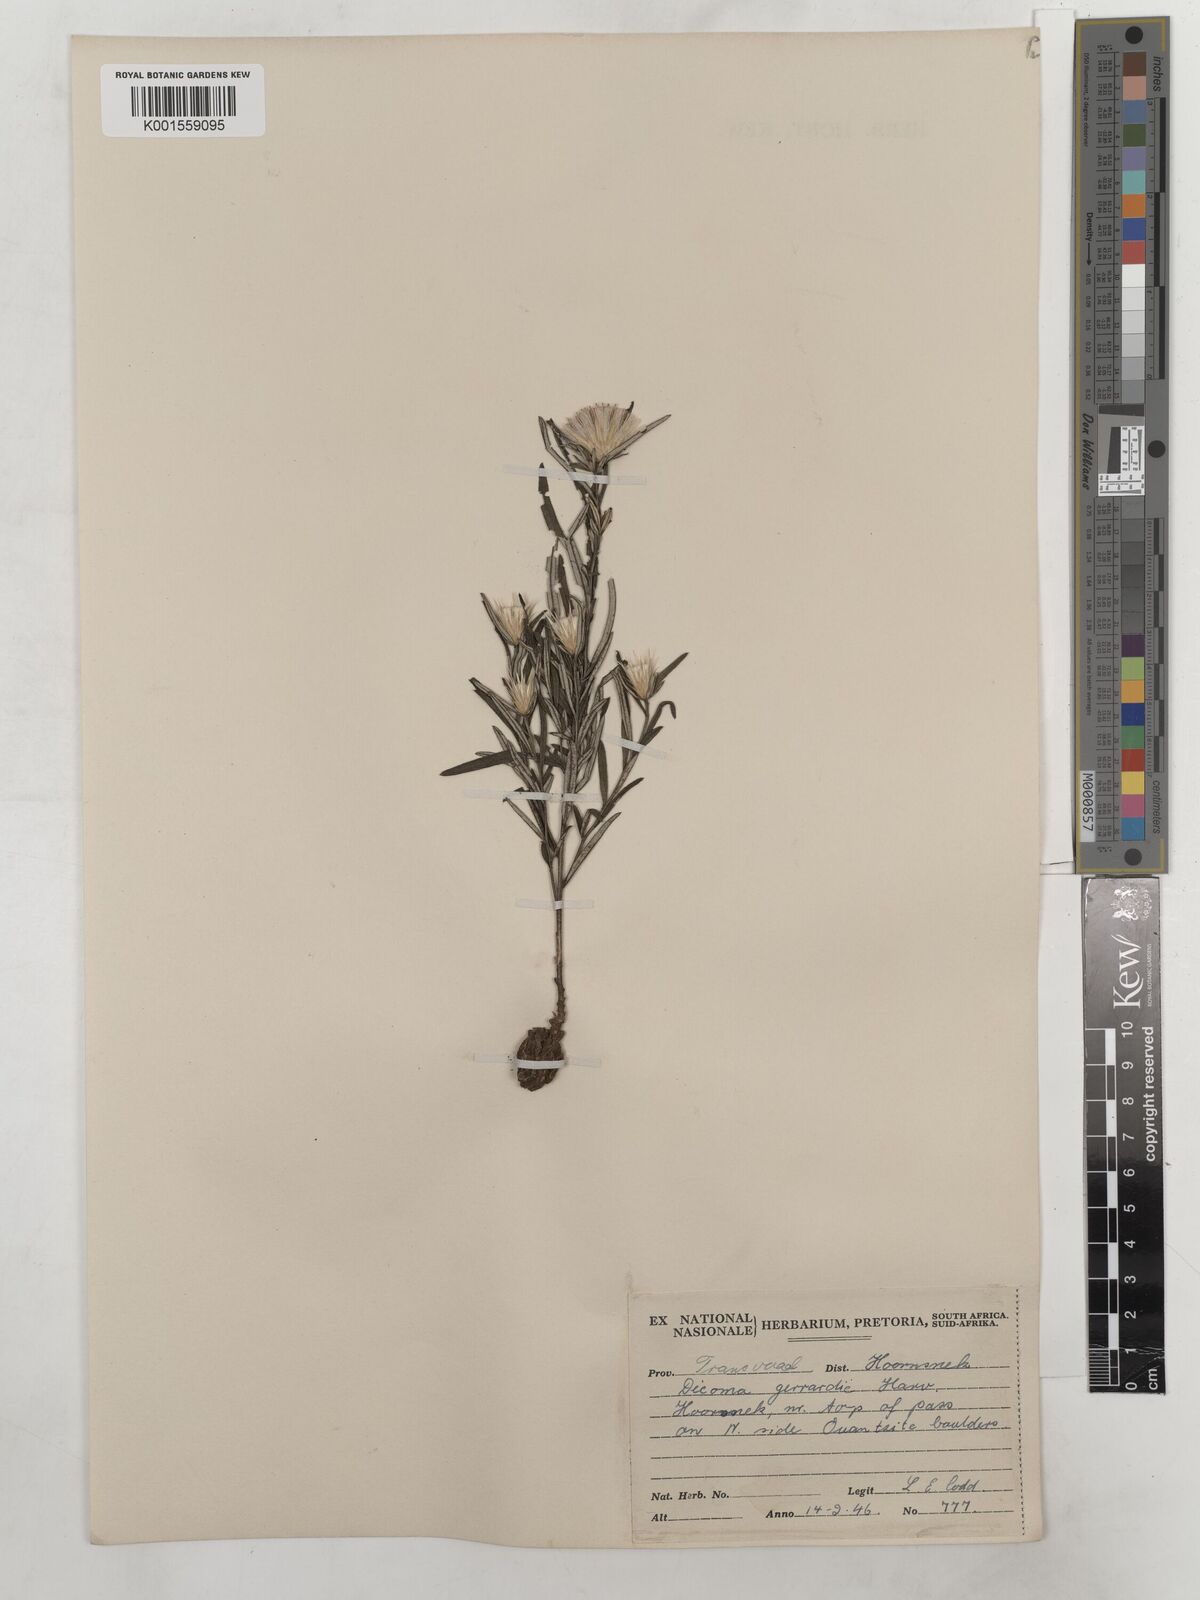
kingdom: Plantae
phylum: Tracheophyta
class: Magnoliopsida
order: Asterales
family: Asteraceae
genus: Dicoma
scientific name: Dicoma anomala
